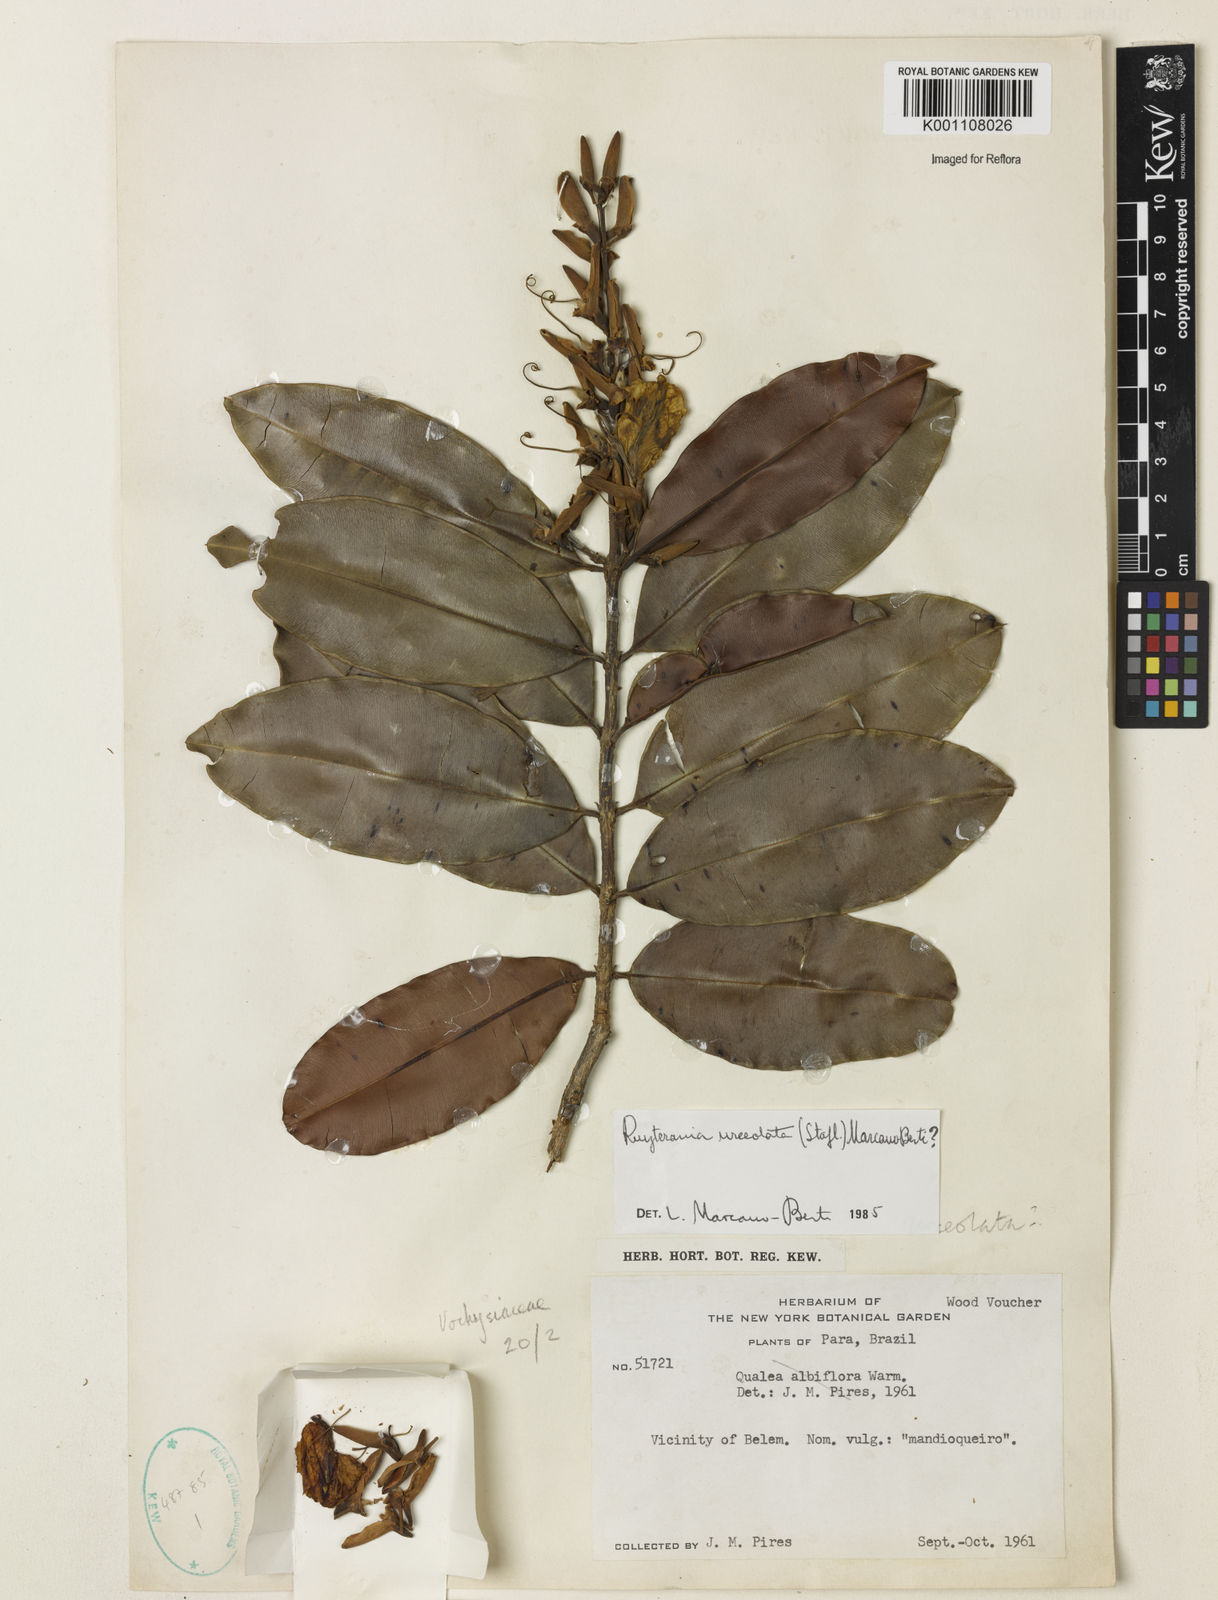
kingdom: Plantae
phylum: Tracheophyta
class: Magnoliopsida
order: Myrtales
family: Vochysiaceae
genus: Ruizterania
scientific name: Ruizterania urceolata
